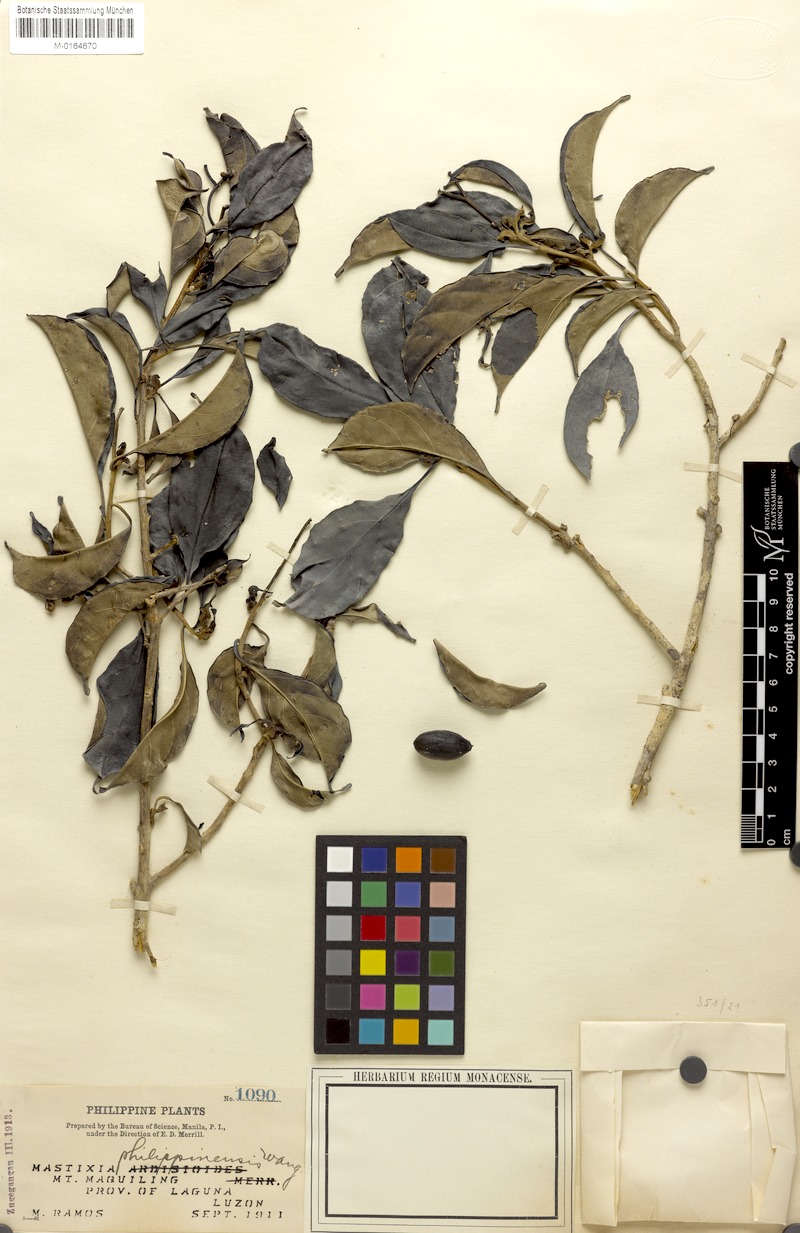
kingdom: Plantae
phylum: Tracheophyta
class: Magnoliopsida
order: Cornales
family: Nyssaceae
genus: Mastixia
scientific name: Mastixia pentandra
